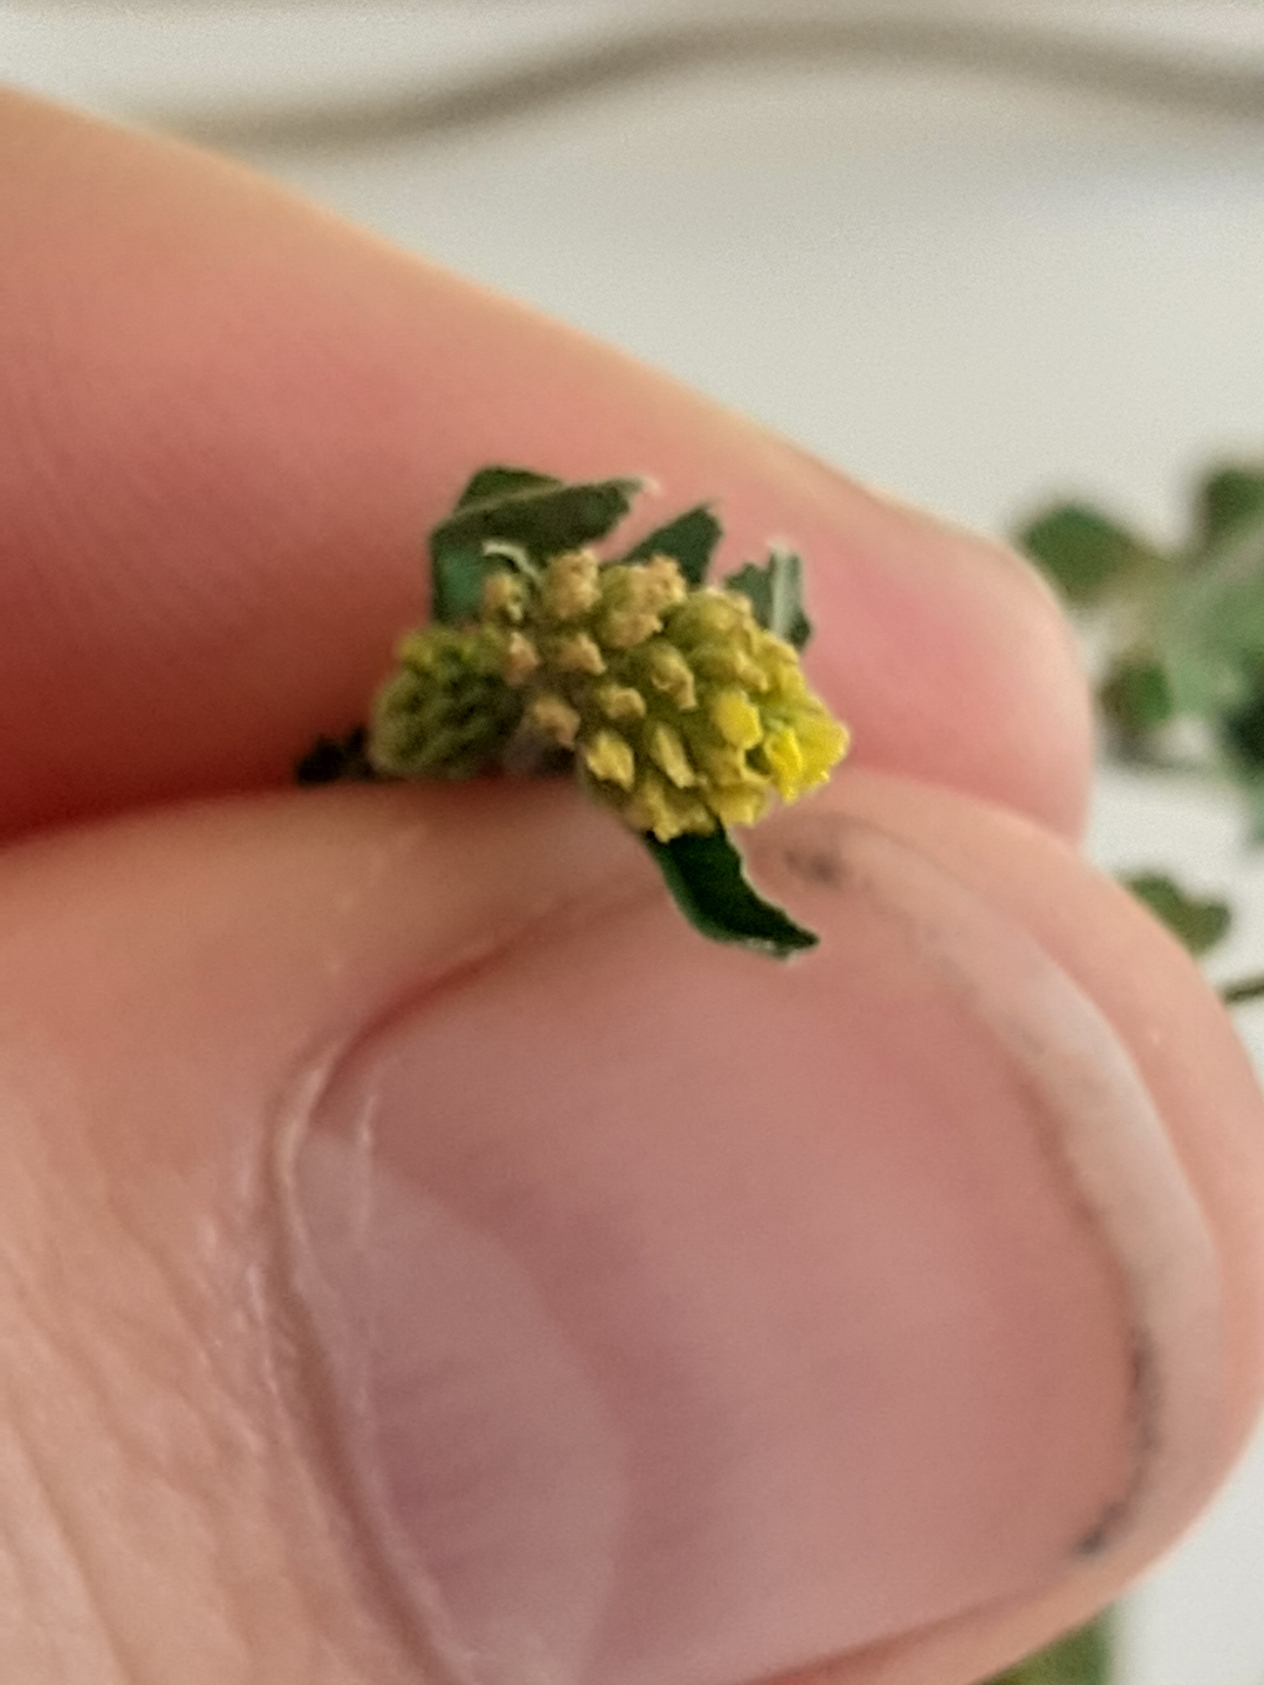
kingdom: Plantae
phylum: Tracheophyta
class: Magnoliopsida
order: Fabales
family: Fabaceae
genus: Medicago
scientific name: Medicago lupulina
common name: Humle-sneglebælg
